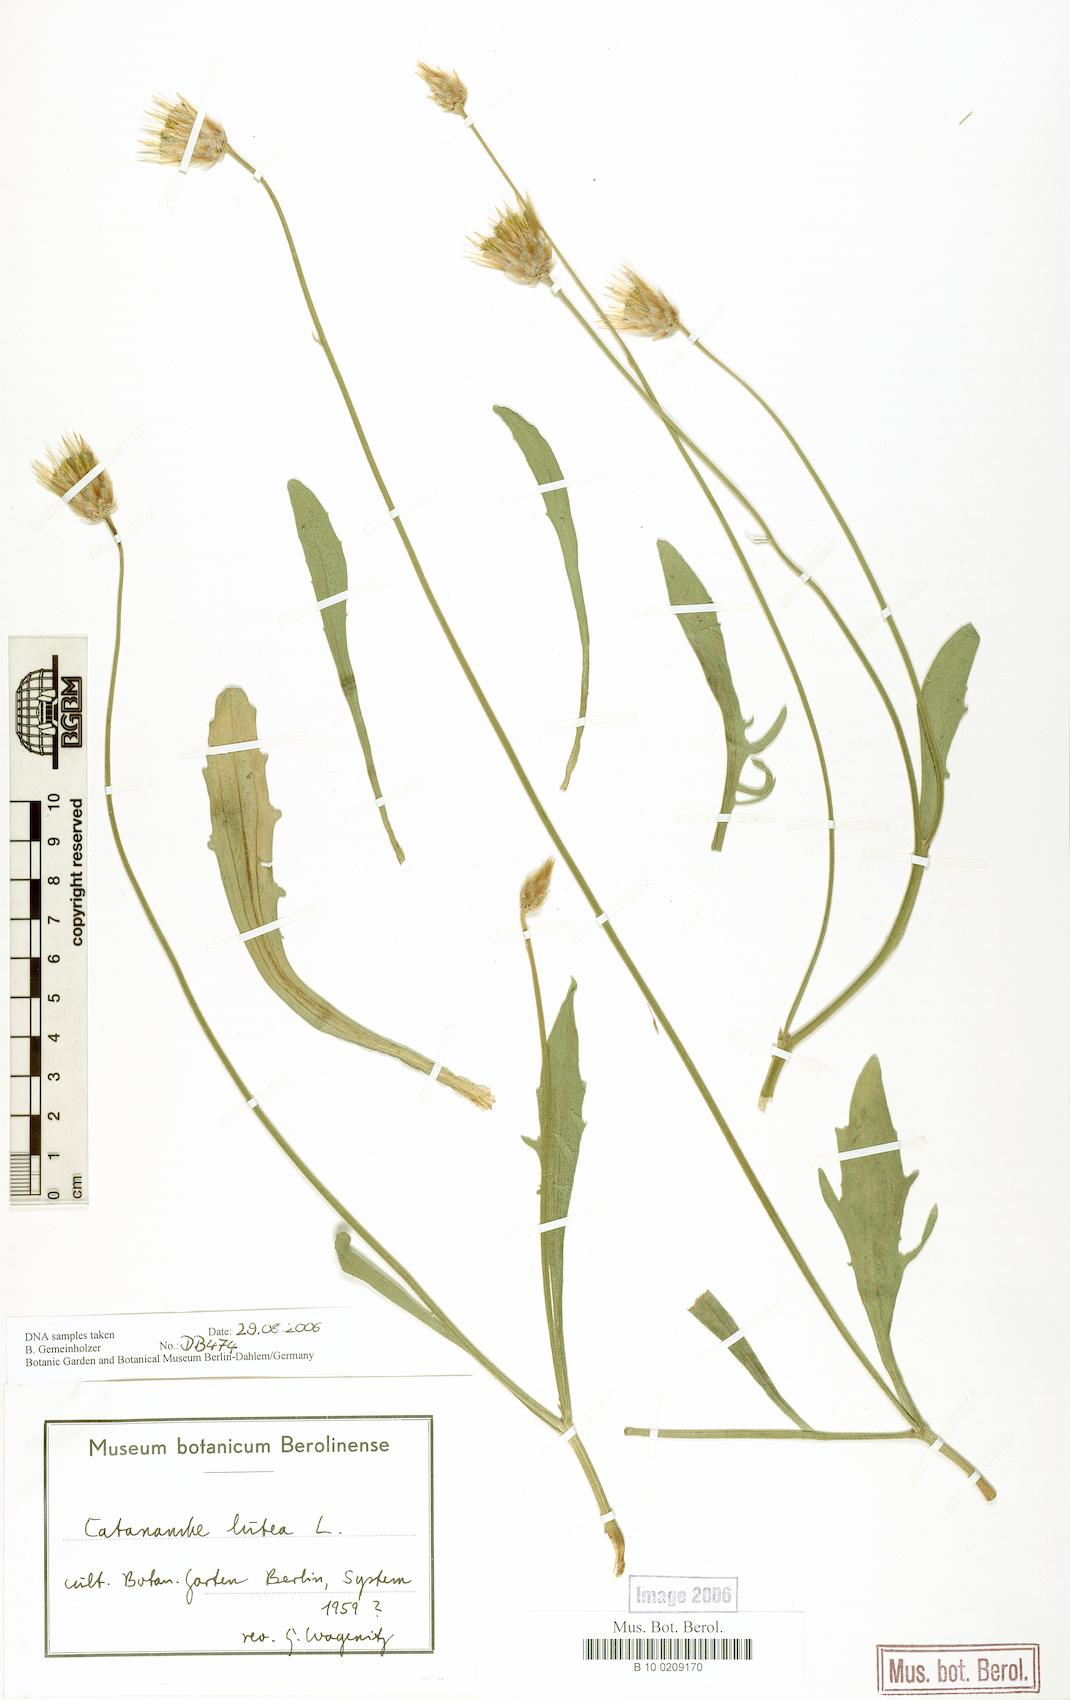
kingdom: Plantae
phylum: Tracheophyta
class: Magnoliopsida
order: Asterales
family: Asteraceae
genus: Catananche
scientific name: Catananche lutea
